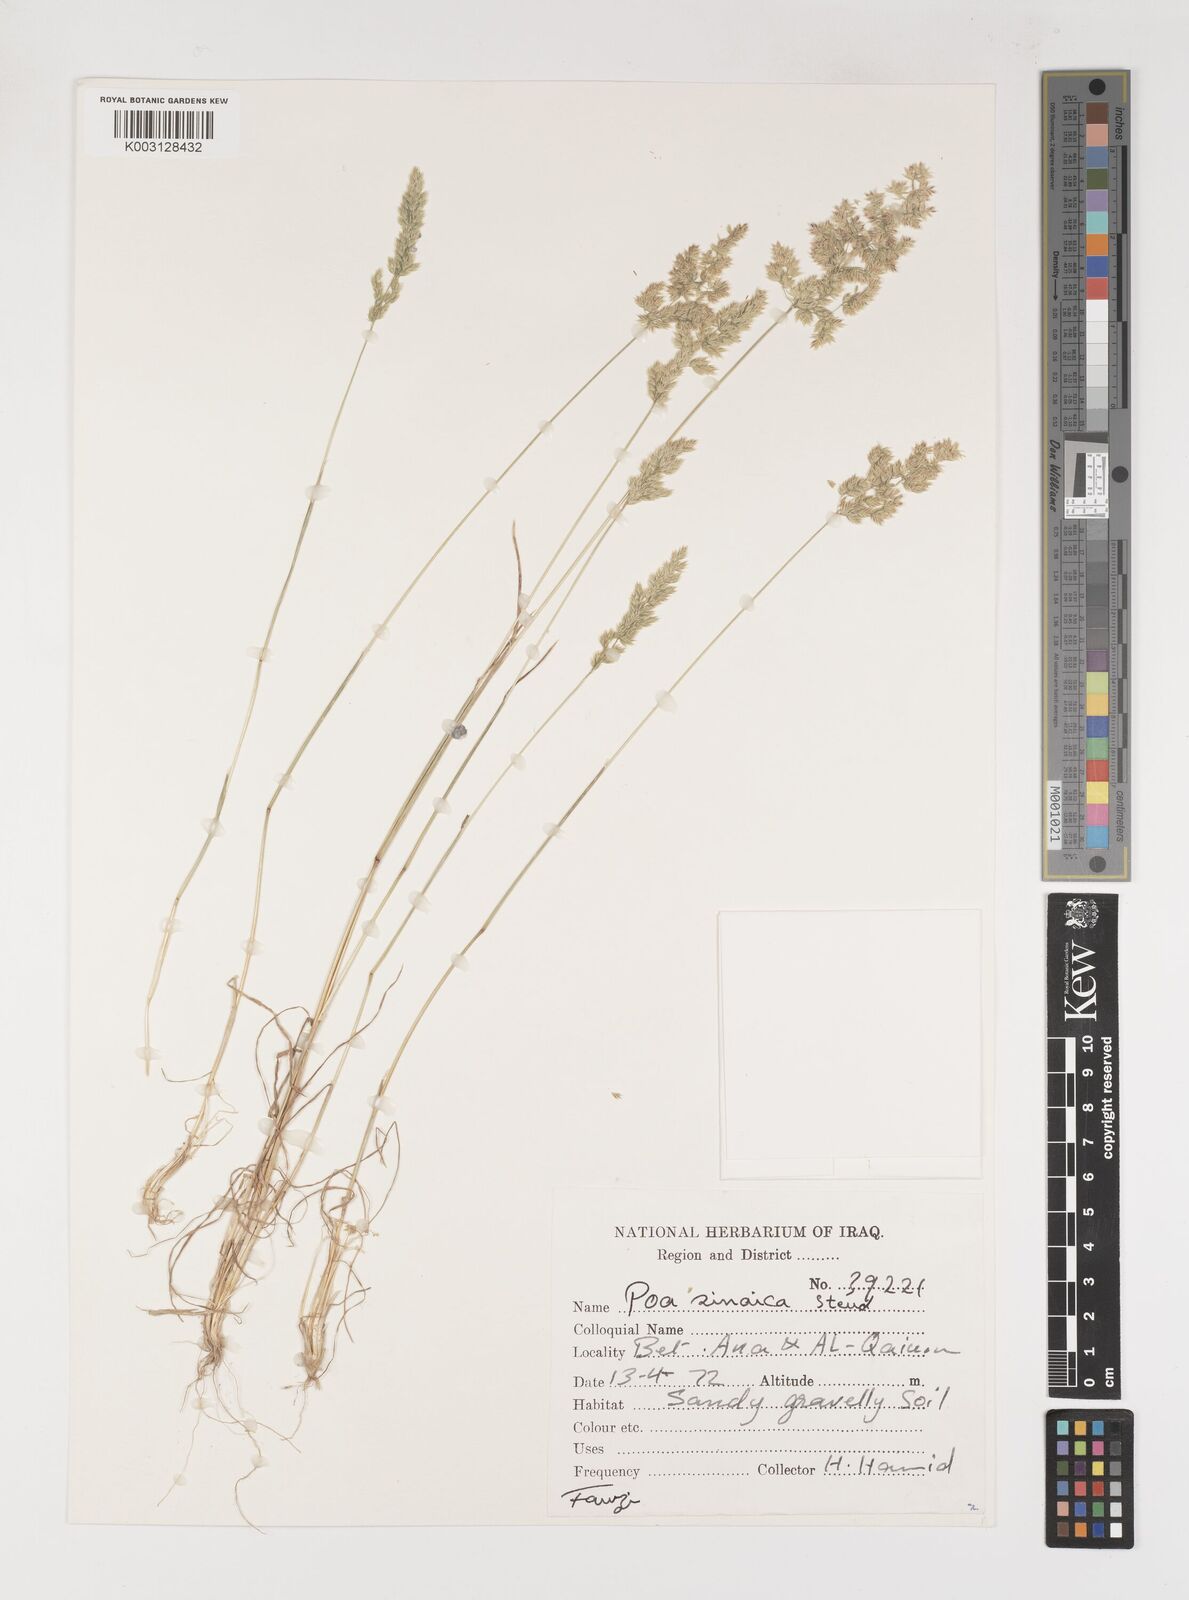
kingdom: Plantae
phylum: Tracheophyta
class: Liliopsida
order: Poales
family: Poaceae
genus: Poa
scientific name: Poa sinaica
